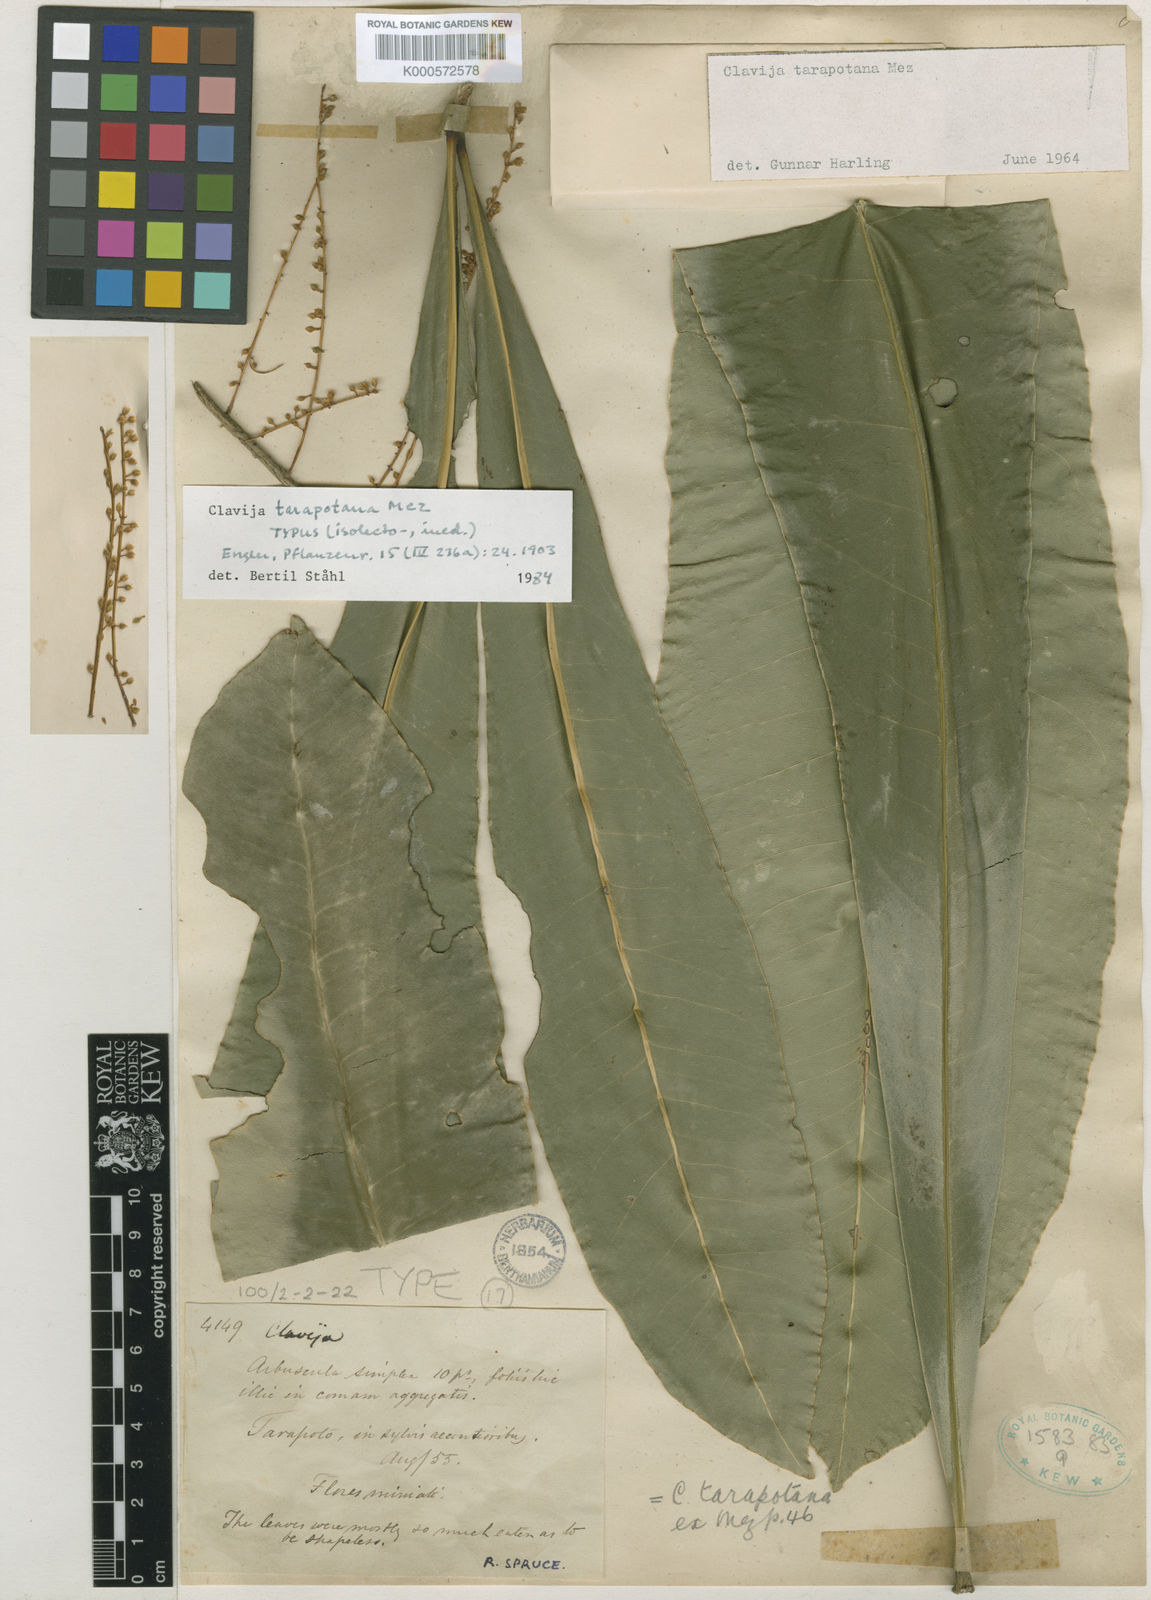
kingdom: Plantae
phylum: Tracheophyta
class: Magnoliopsida
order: Ericales
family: Primulaceae
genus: Clavija
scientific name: Clavija tarapotana
